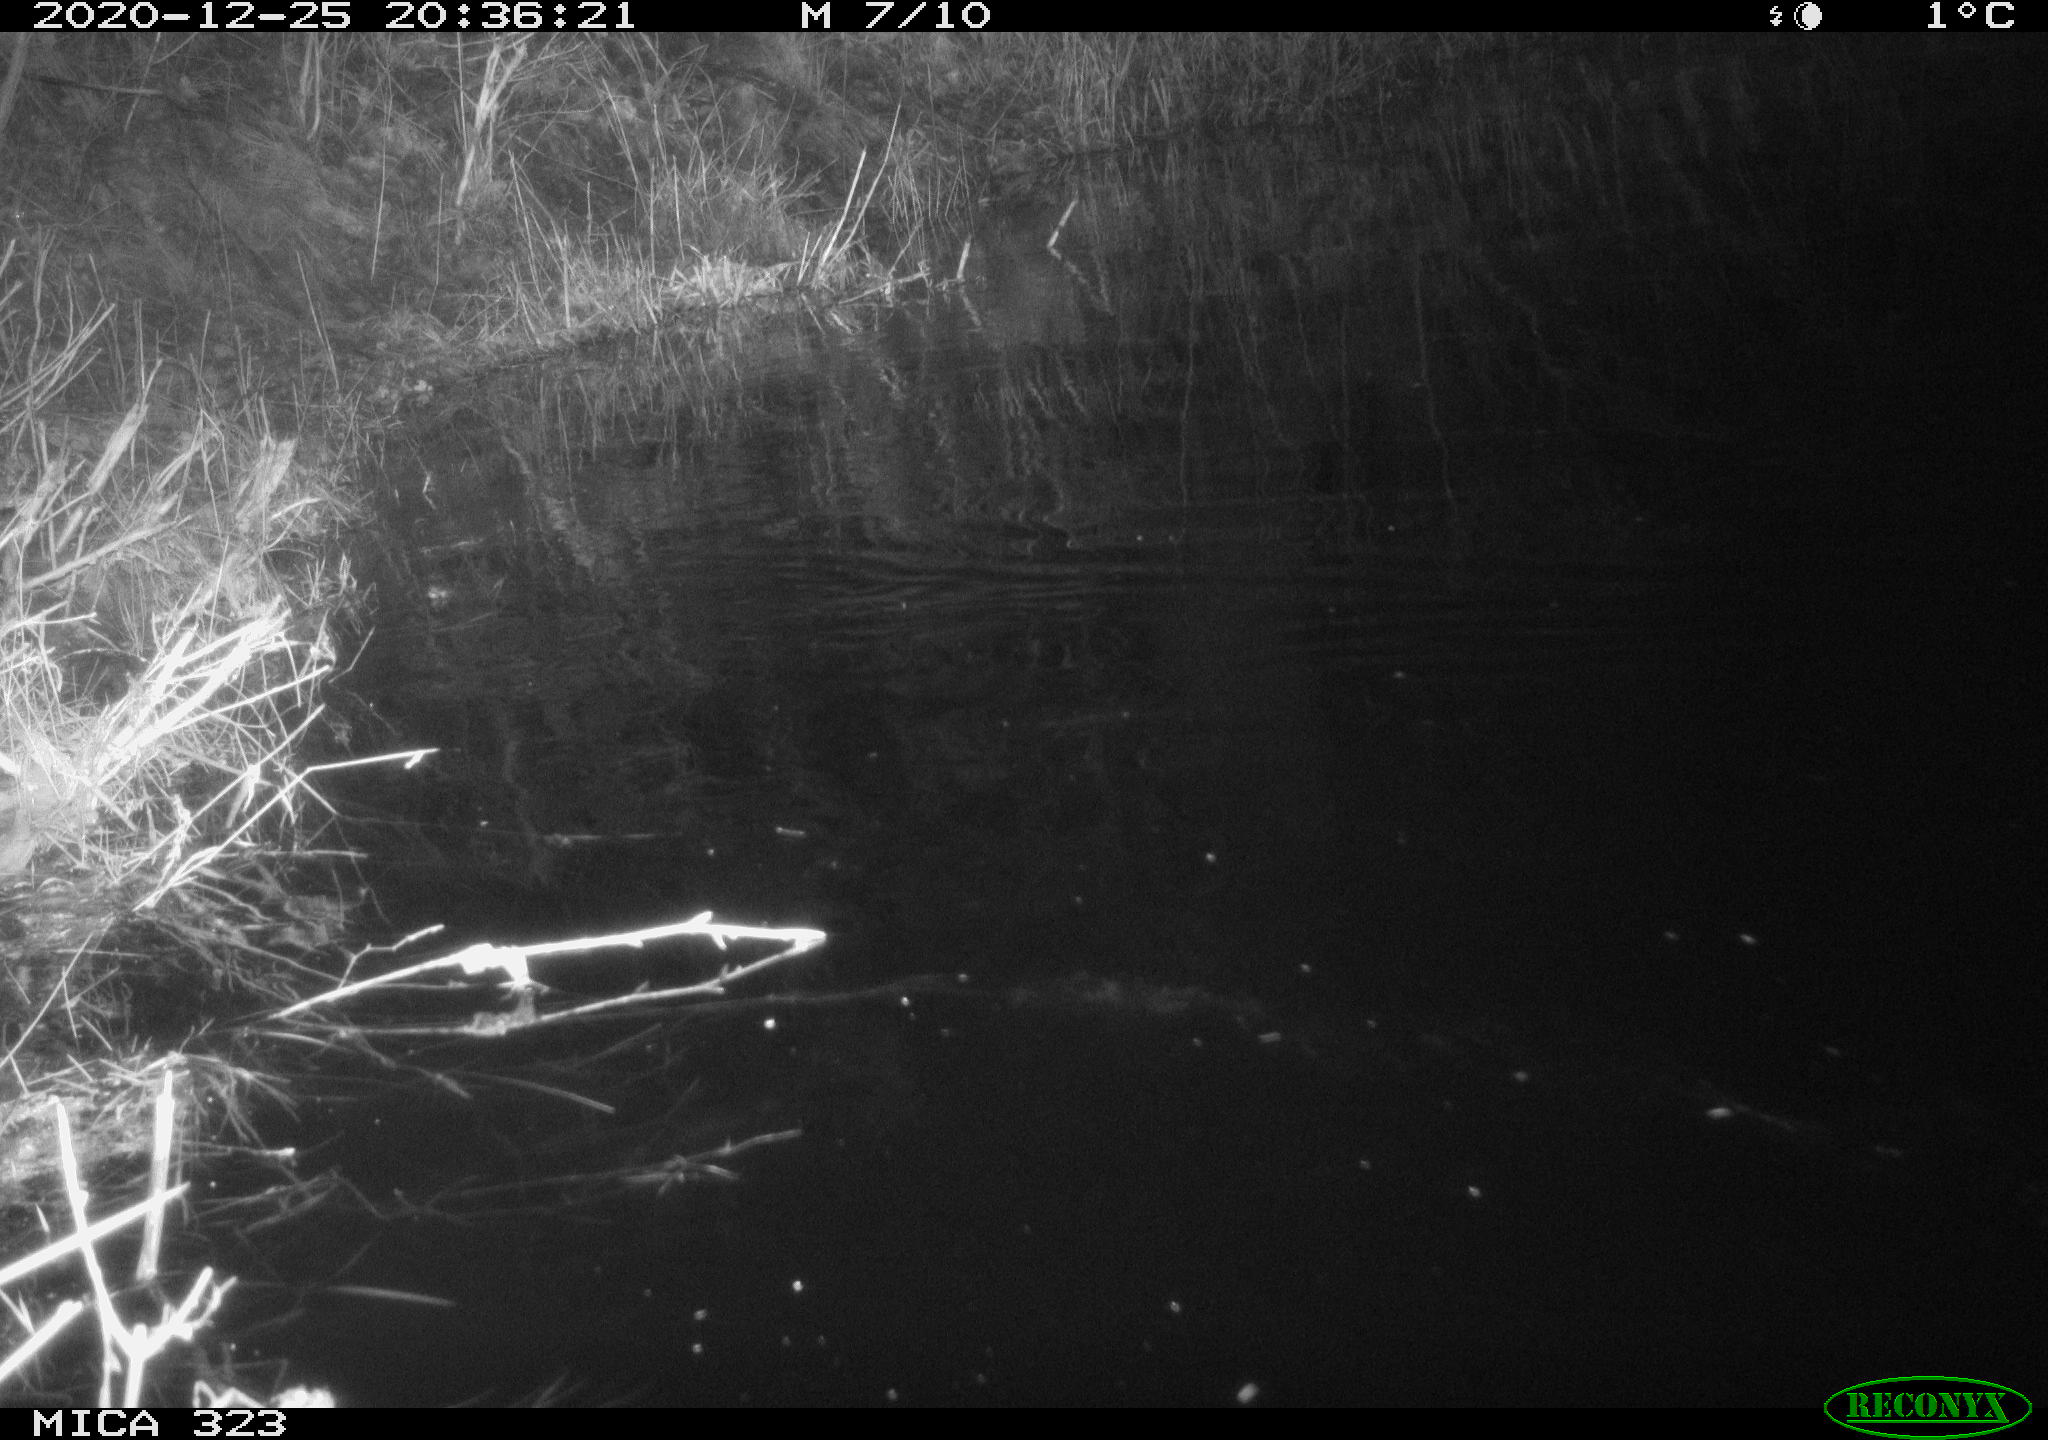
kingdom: Animalia
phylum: Chordata
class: Mammalia
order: Rodentia
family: Muridae
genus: Rattus
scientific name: Rattus norvegicus
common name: Brown rat
